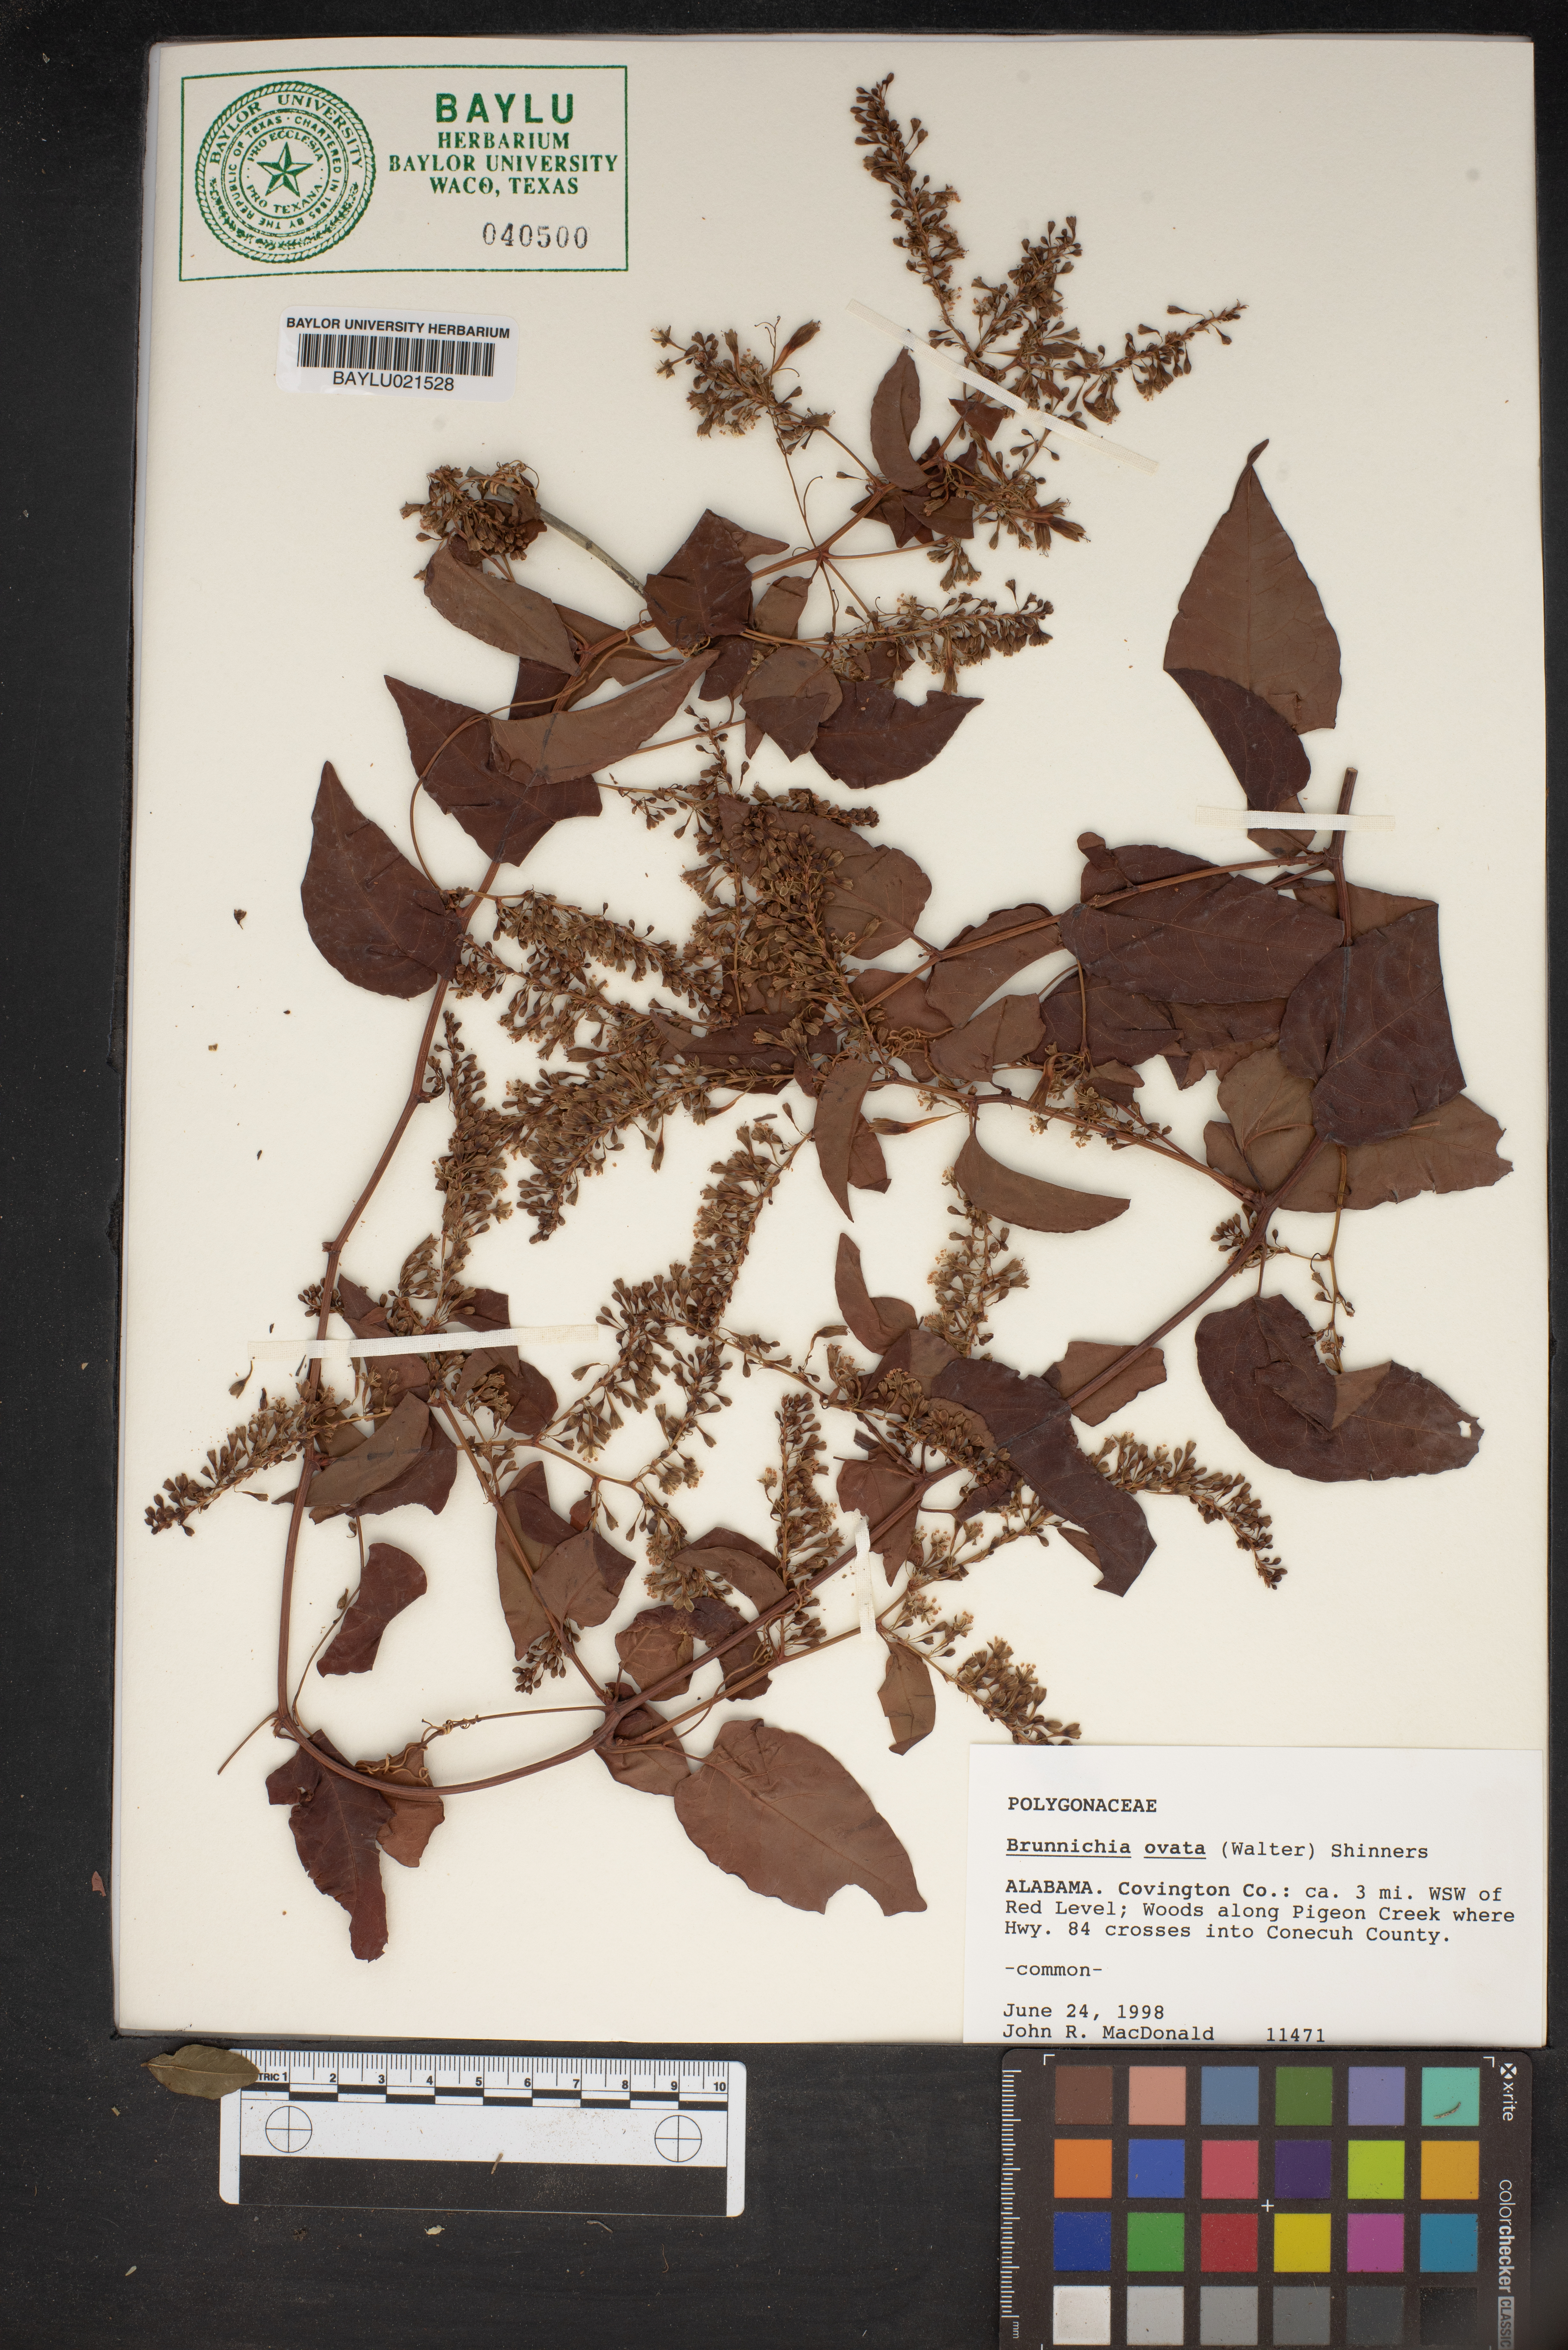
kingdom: Plantae
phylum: Tracheophyta
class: Magnoliopsida
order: Caryophyllales
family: Polygonaceae
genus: Brunnichia
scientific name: Brunnichia ovata
